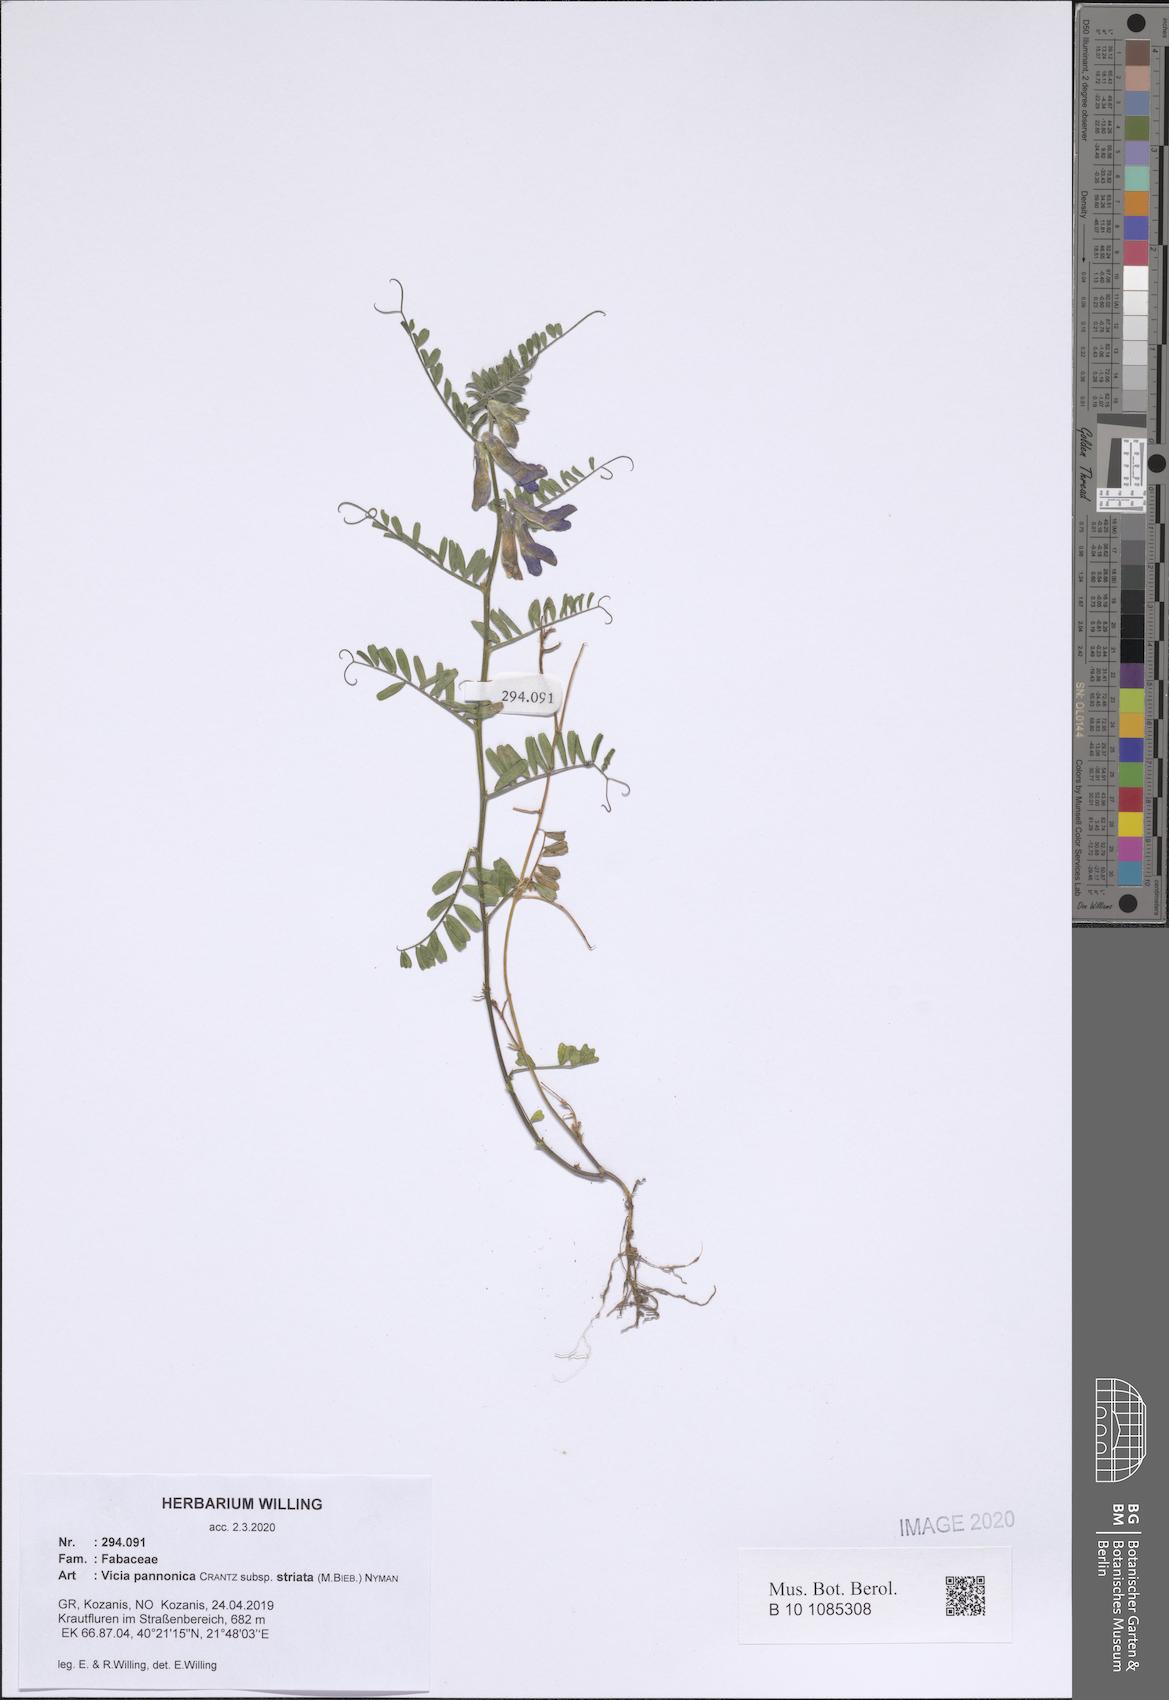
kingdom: Plantae
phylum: Tracheophyta
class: Magnoliopsida
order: Fabales
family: Fabaceae
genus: Vicia
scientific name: Vicia pannonica
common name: Hungarian vetch
